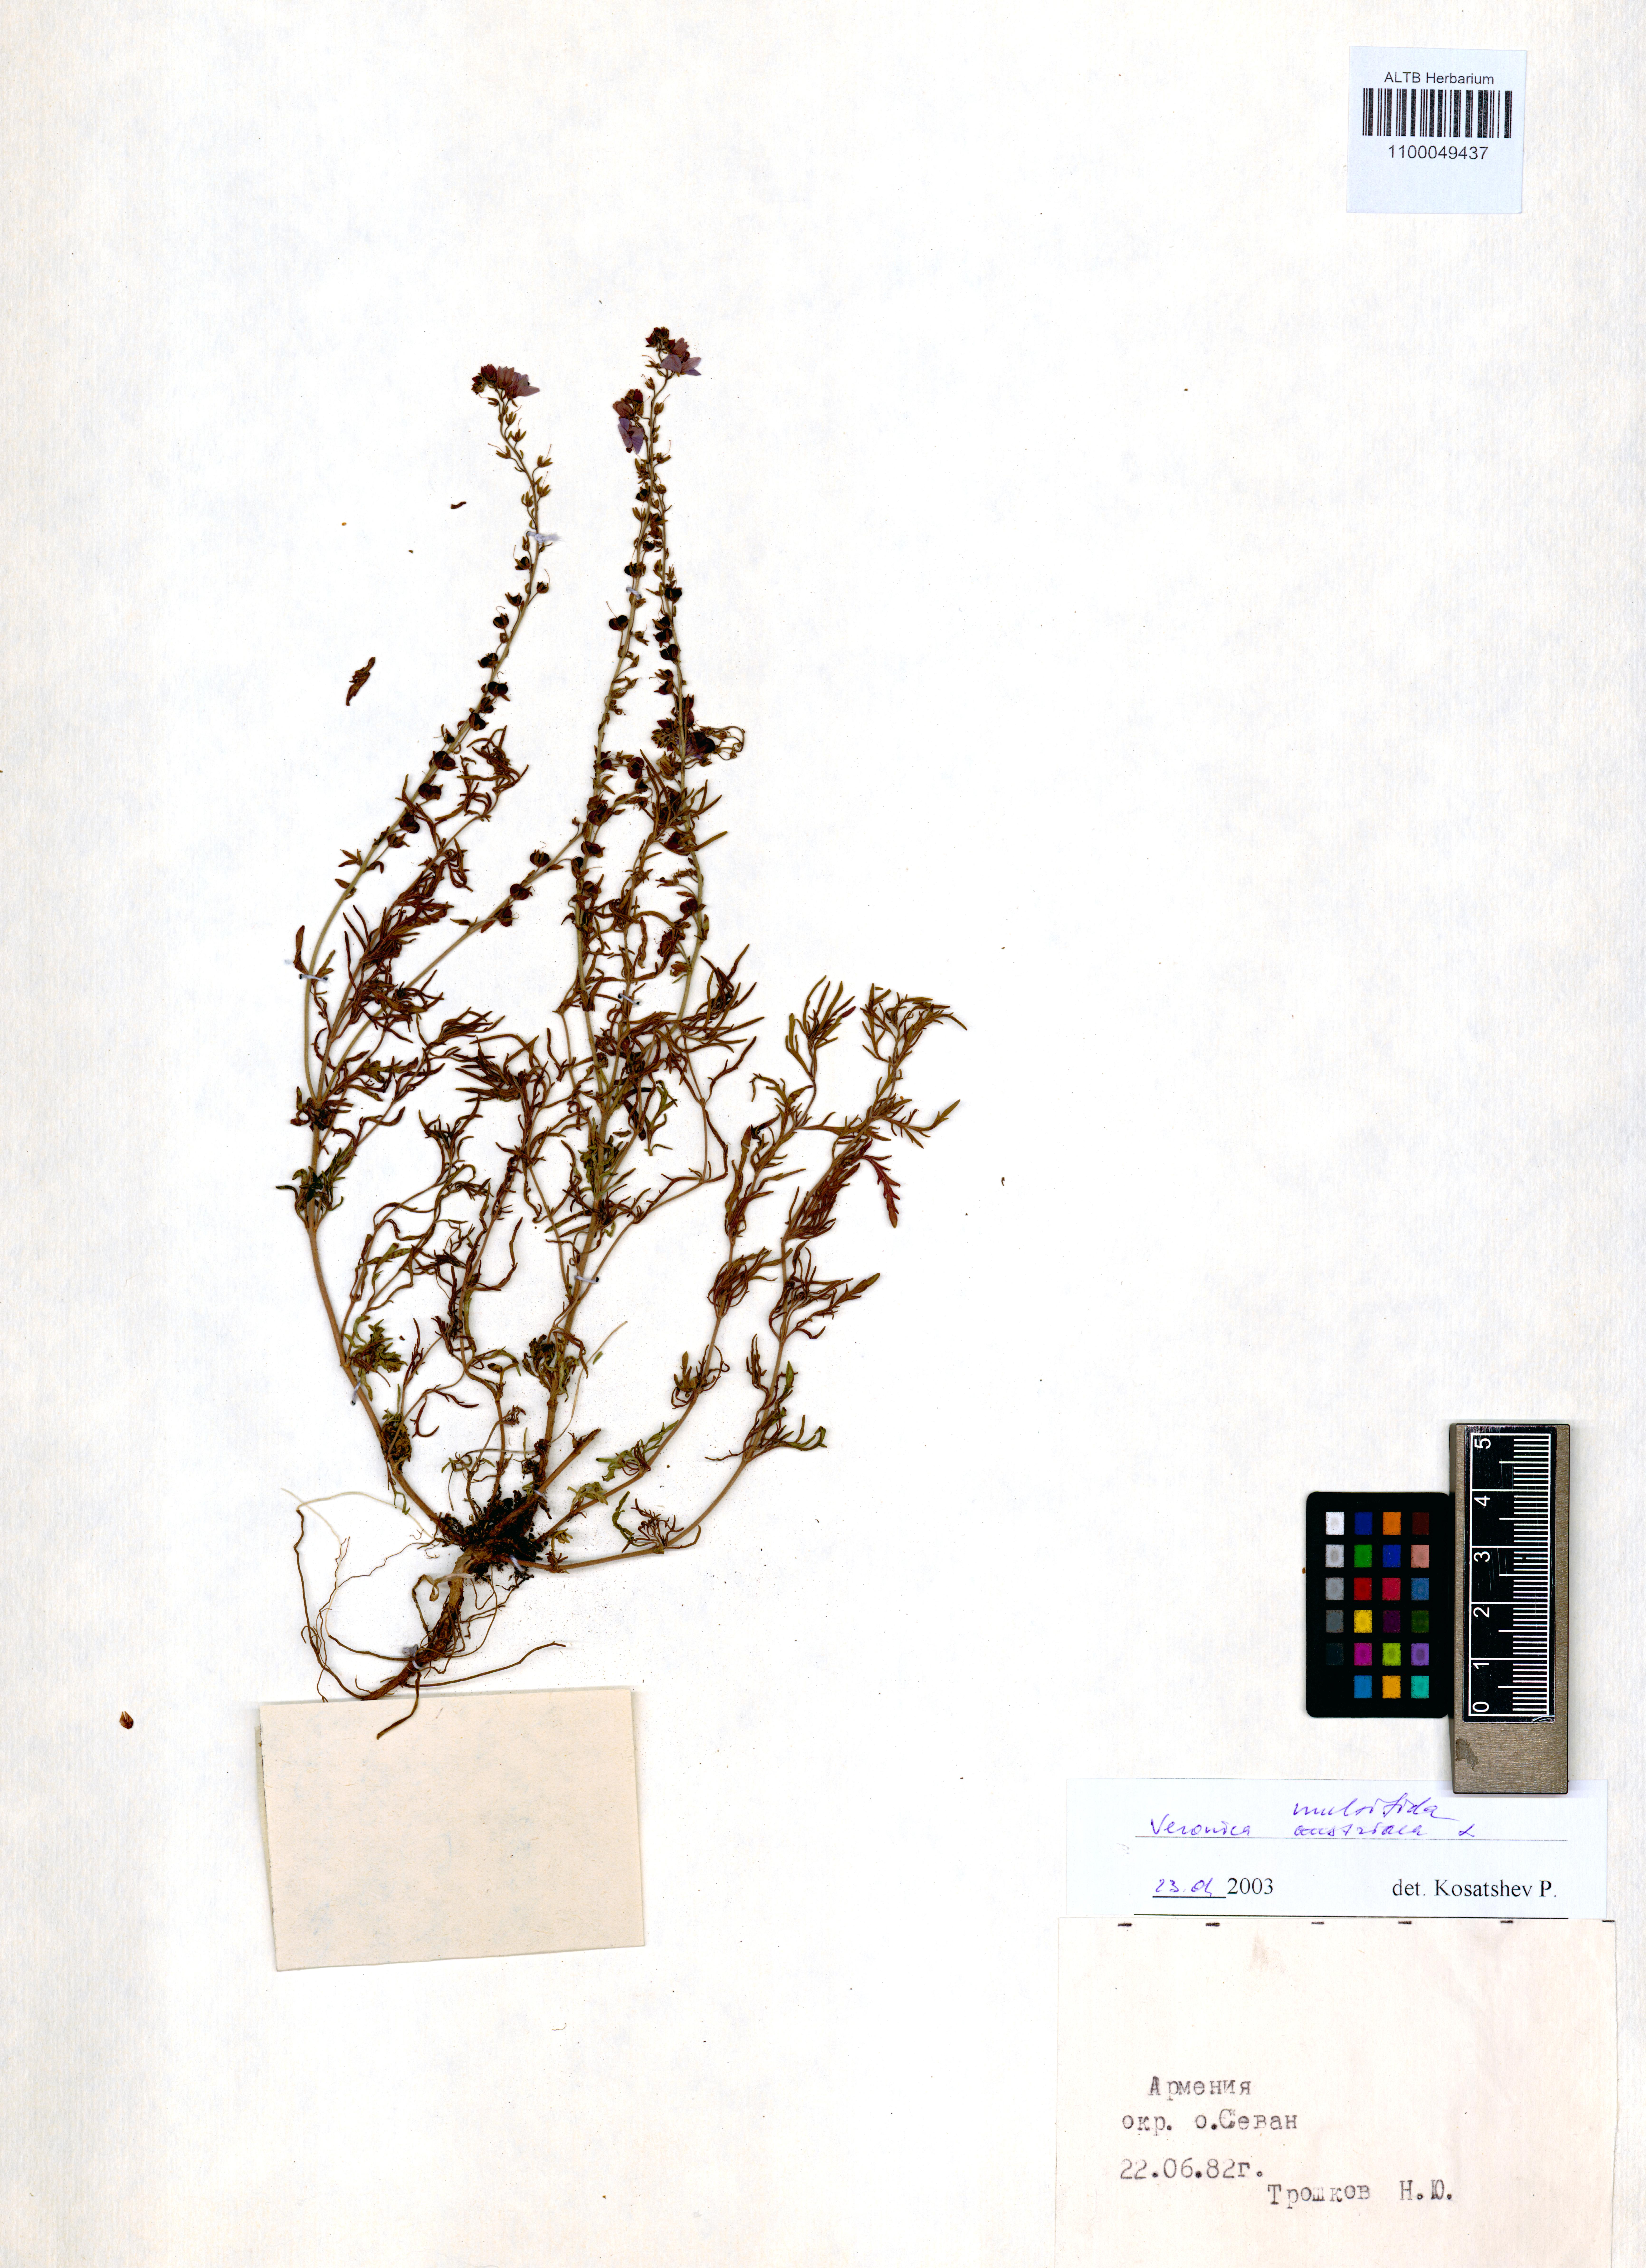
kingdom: Plantae
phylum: Tracheophyta
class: Magnoliopsida
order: Lamiales
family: Plantaginaceae
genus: Veronica
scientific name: Veronica multifida
